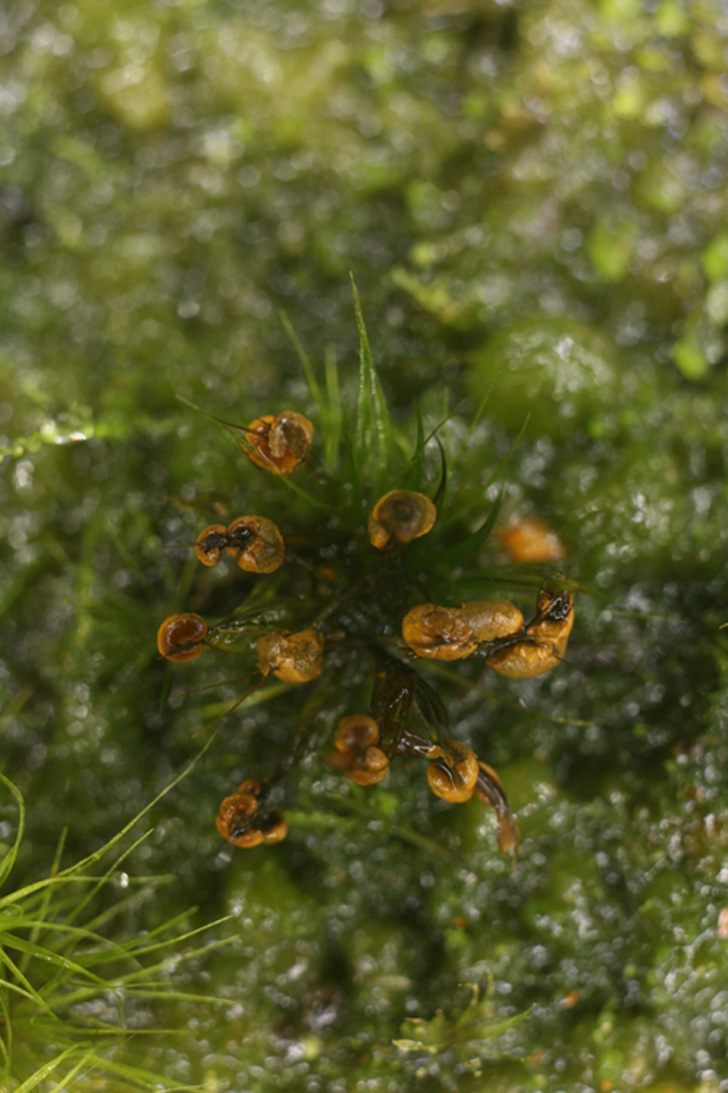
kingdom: Protozoa
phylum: Mycetozoa
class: Myxomycetes
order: Physarales
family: Didymiaceae
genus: Diderma
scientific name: Diderma ochraceum
